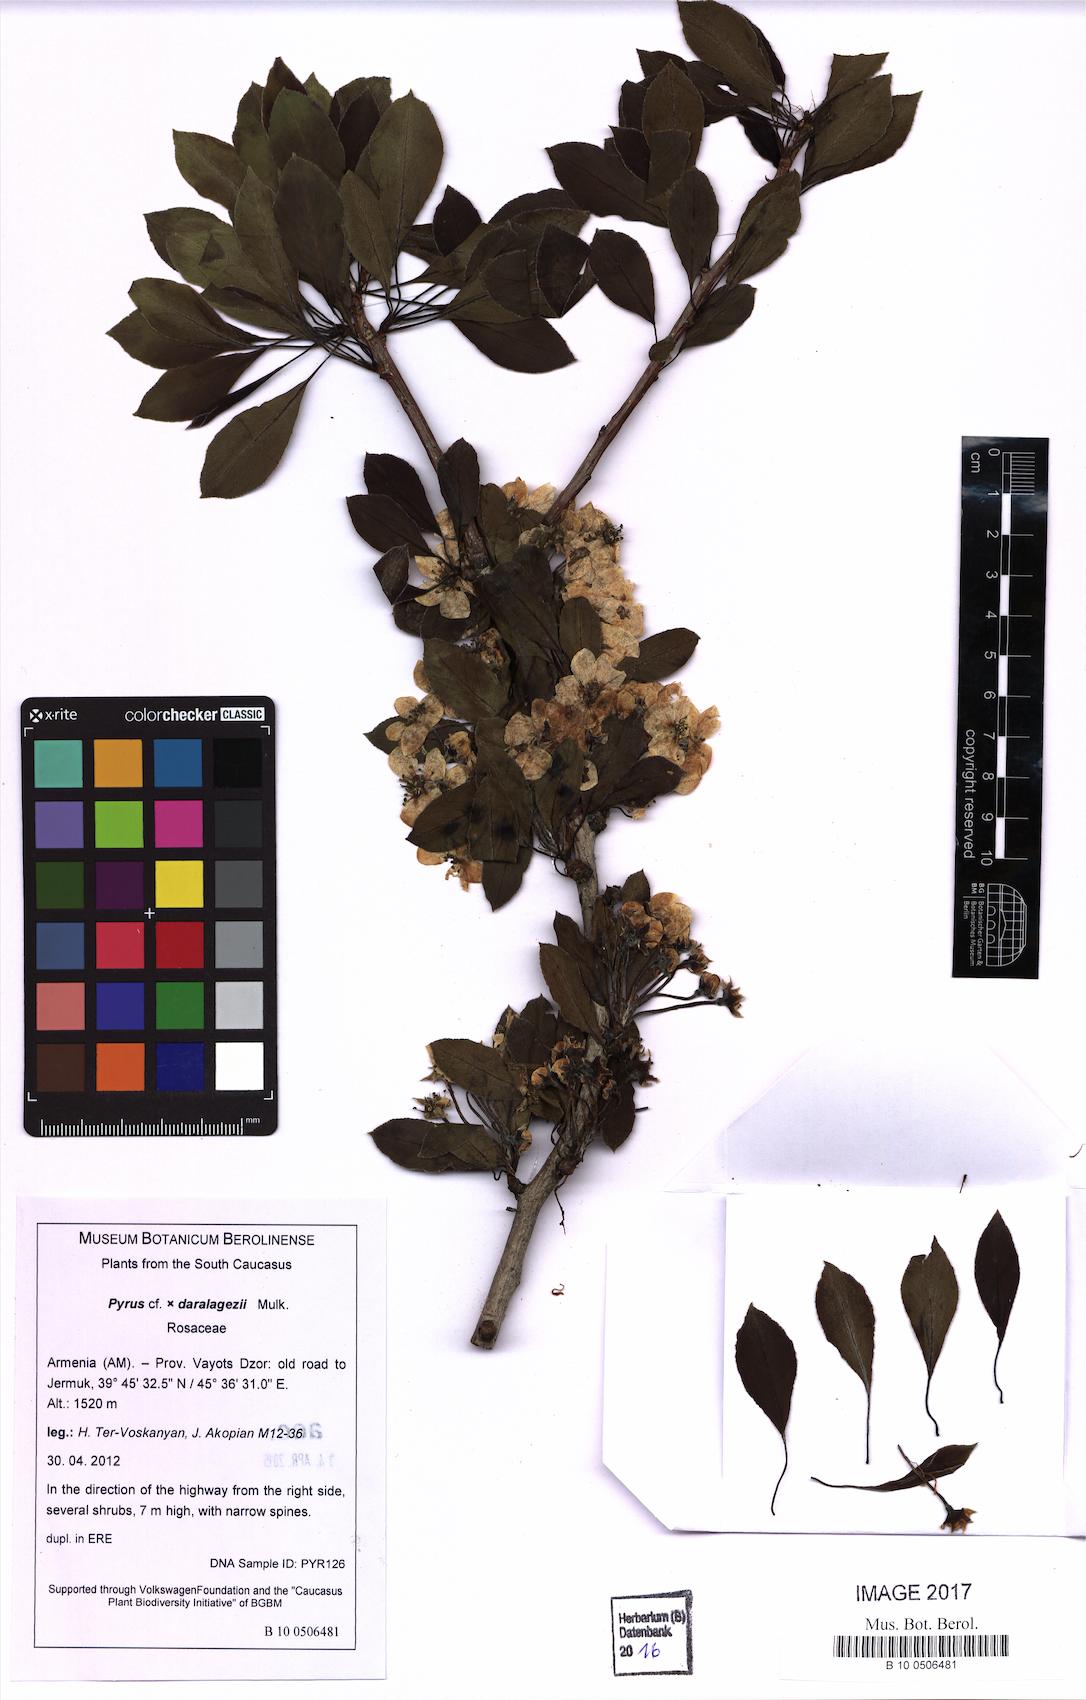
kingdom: Plantae
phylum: Tracheophyta
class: Magnoliopsida
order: Rosales
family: Rosaceae
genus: Pyrus
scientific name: Pyrus daralagezi
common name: Daralagezian pear
